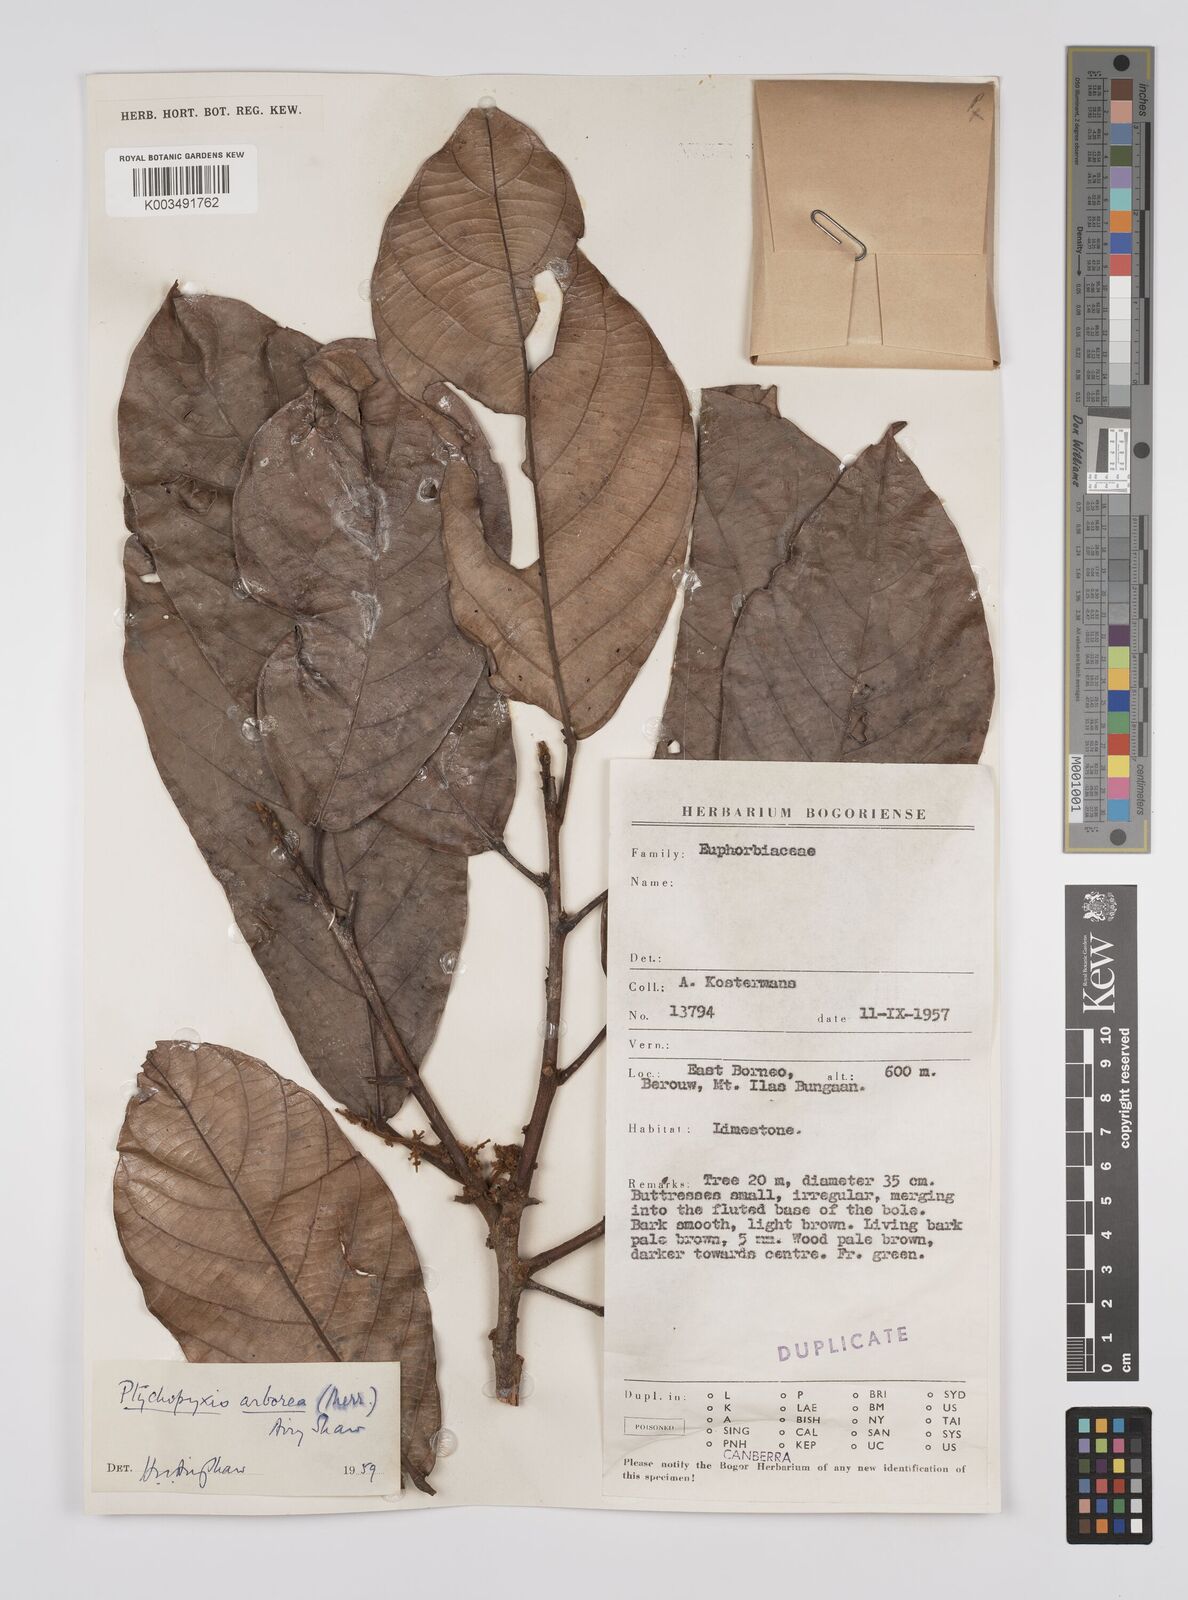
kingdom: Plantae
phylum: Tracheophyta
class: Magnoliopsida
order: Malpighiales
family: Euphorbiaceae
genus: Ptychopyxis
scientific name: Ptychopyxis arborea
